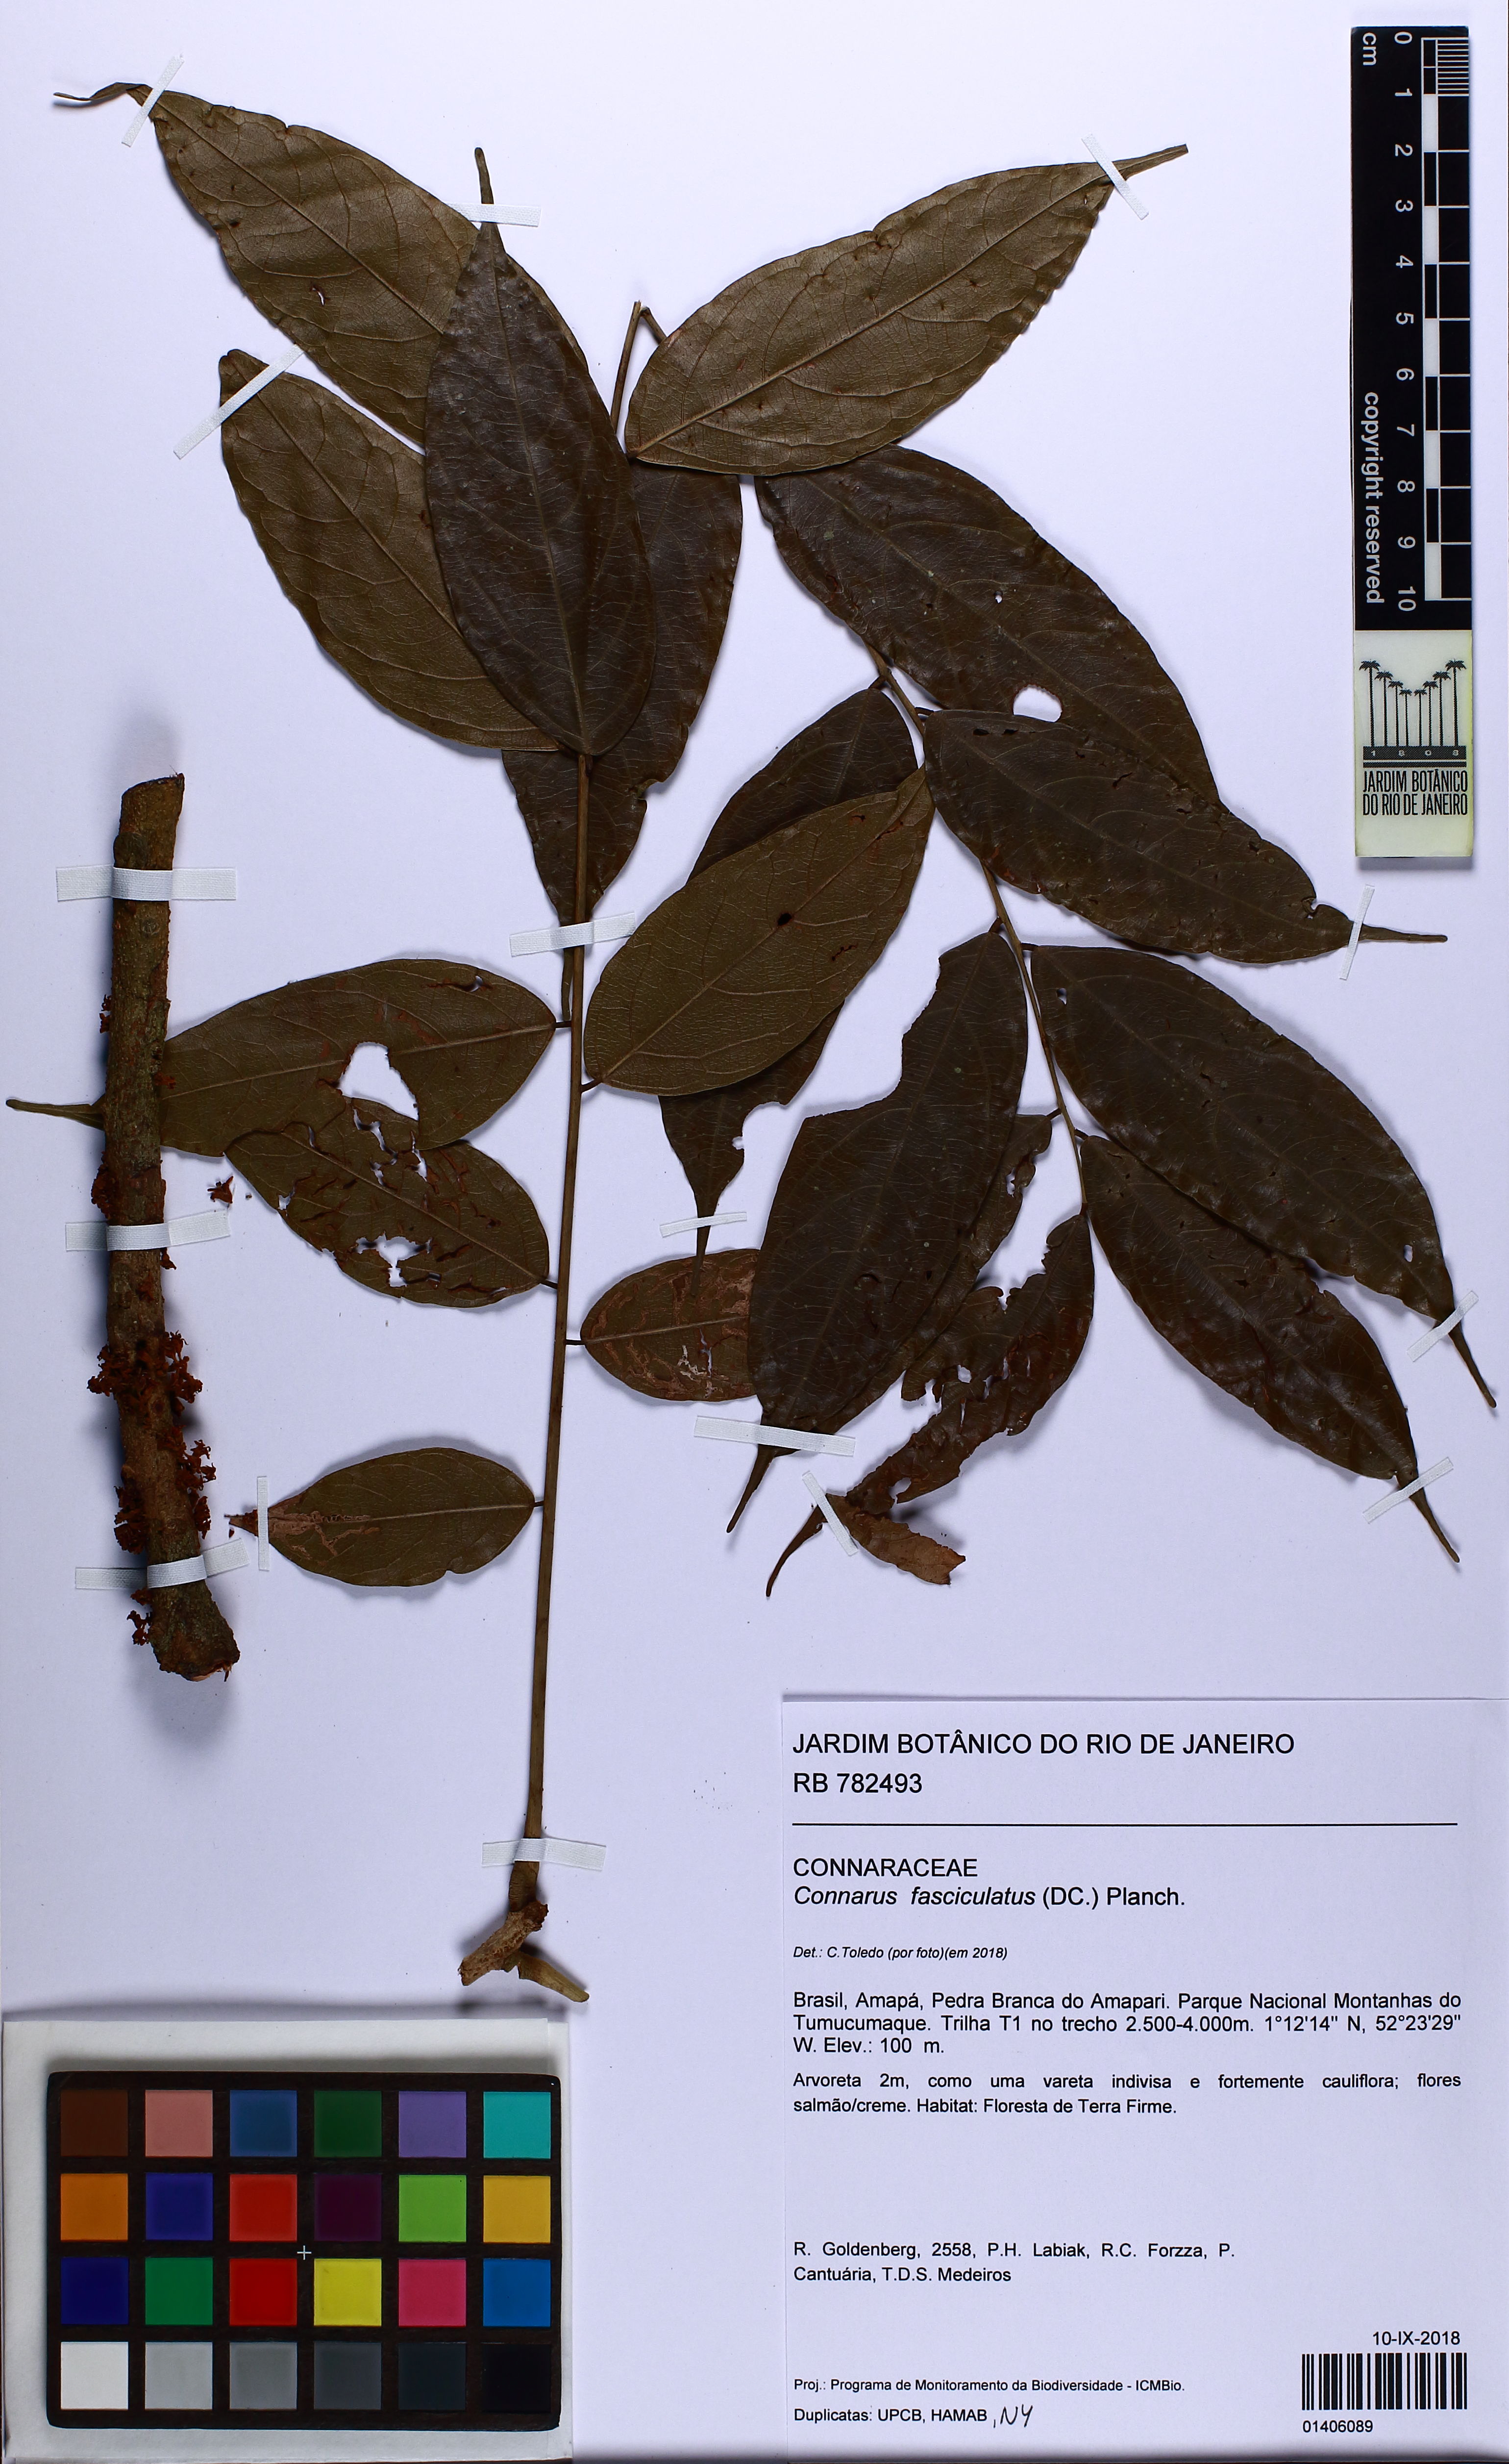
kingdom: Plantae
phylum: Tracheophyta
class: Magnoliopsida
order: Oxalidales
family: Connaraceae
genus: Connarus
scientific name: Connarus fasciculatus
